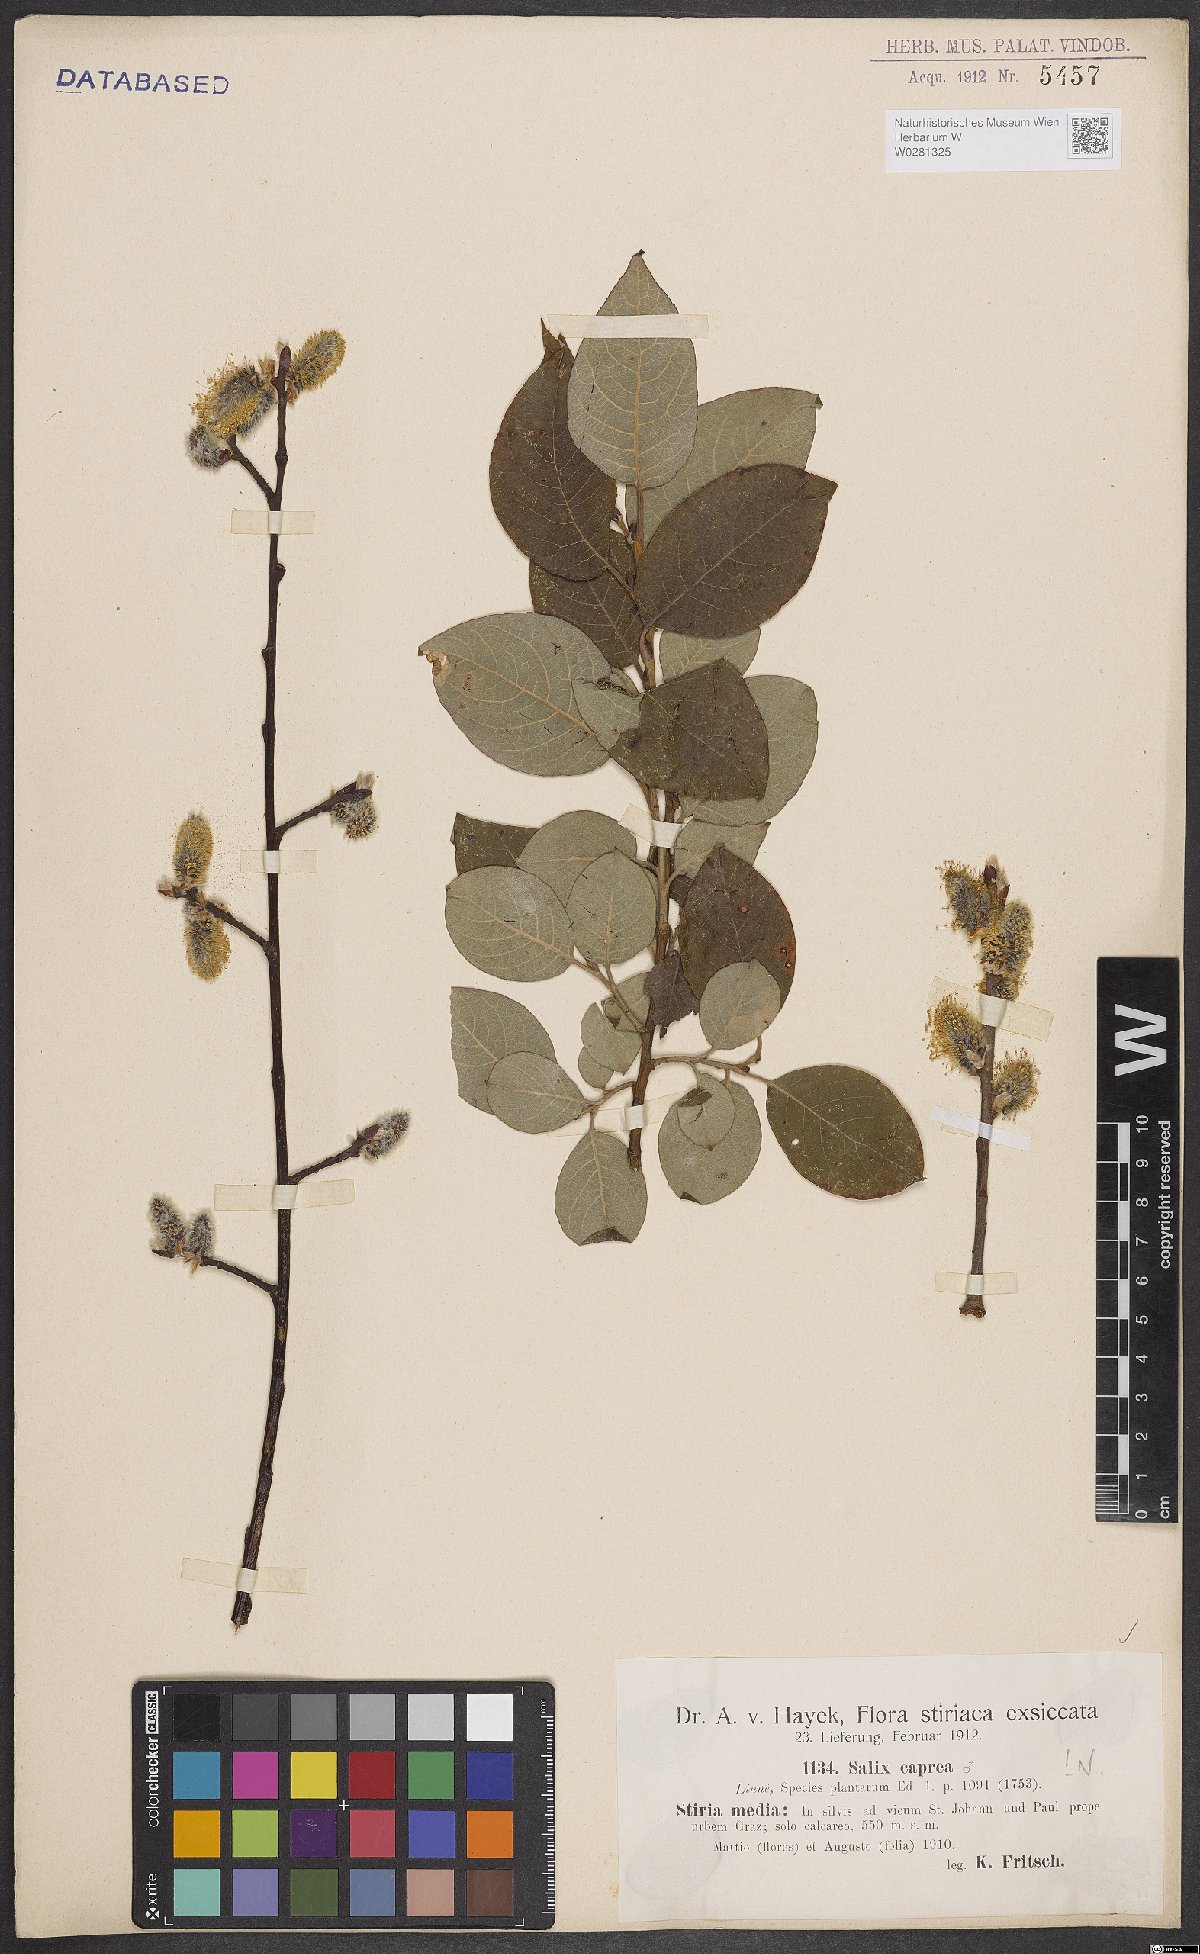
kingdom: Plantae
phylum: Tracheophyta
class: Magnoliopsida
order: Malpighiales
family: Salicaceae
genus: Salix
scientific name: Salix caprea
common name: Goat willow
